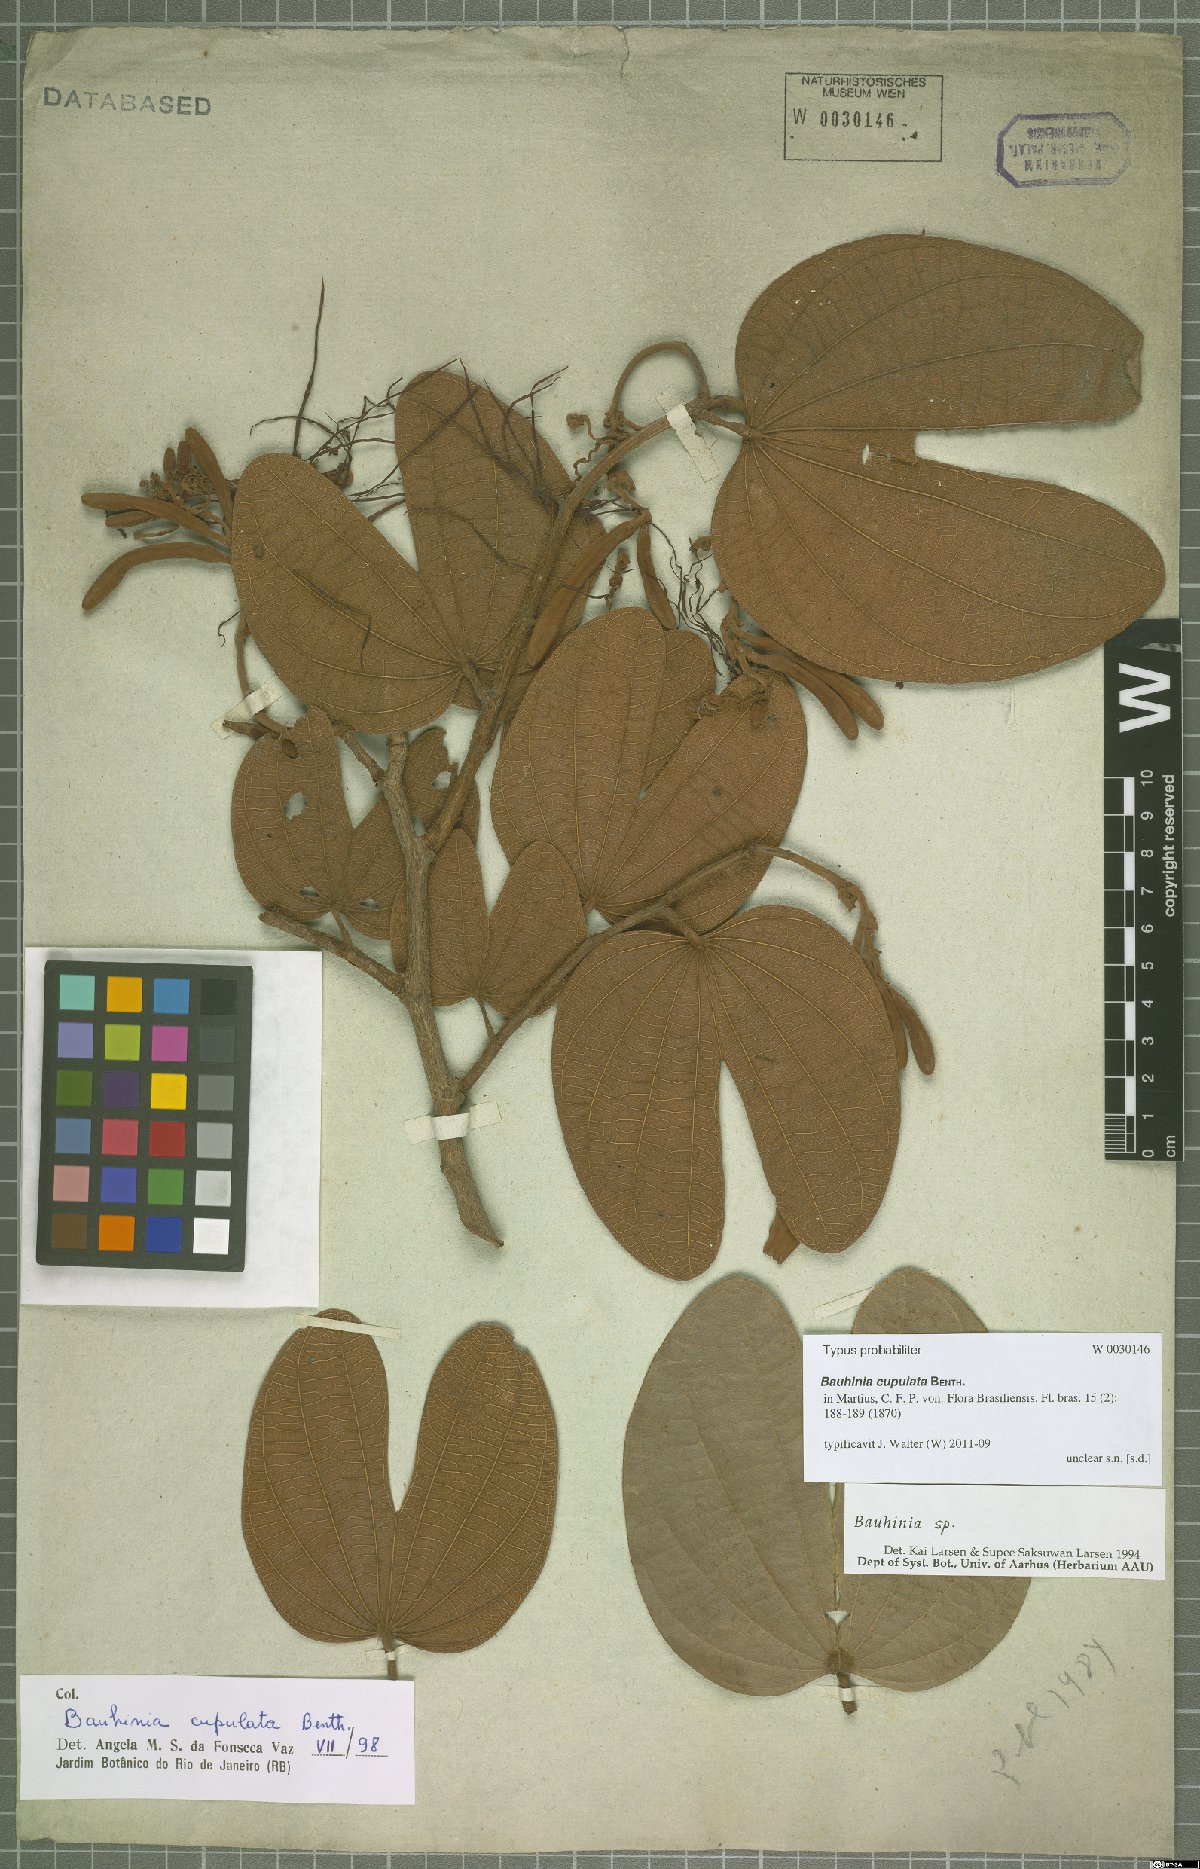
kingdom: Plantae
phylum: Tracheophyta
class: Magnoliopsida
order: Fabales
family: Fabaceae
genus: Bauhinia
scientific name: Bauhinia cupulata
